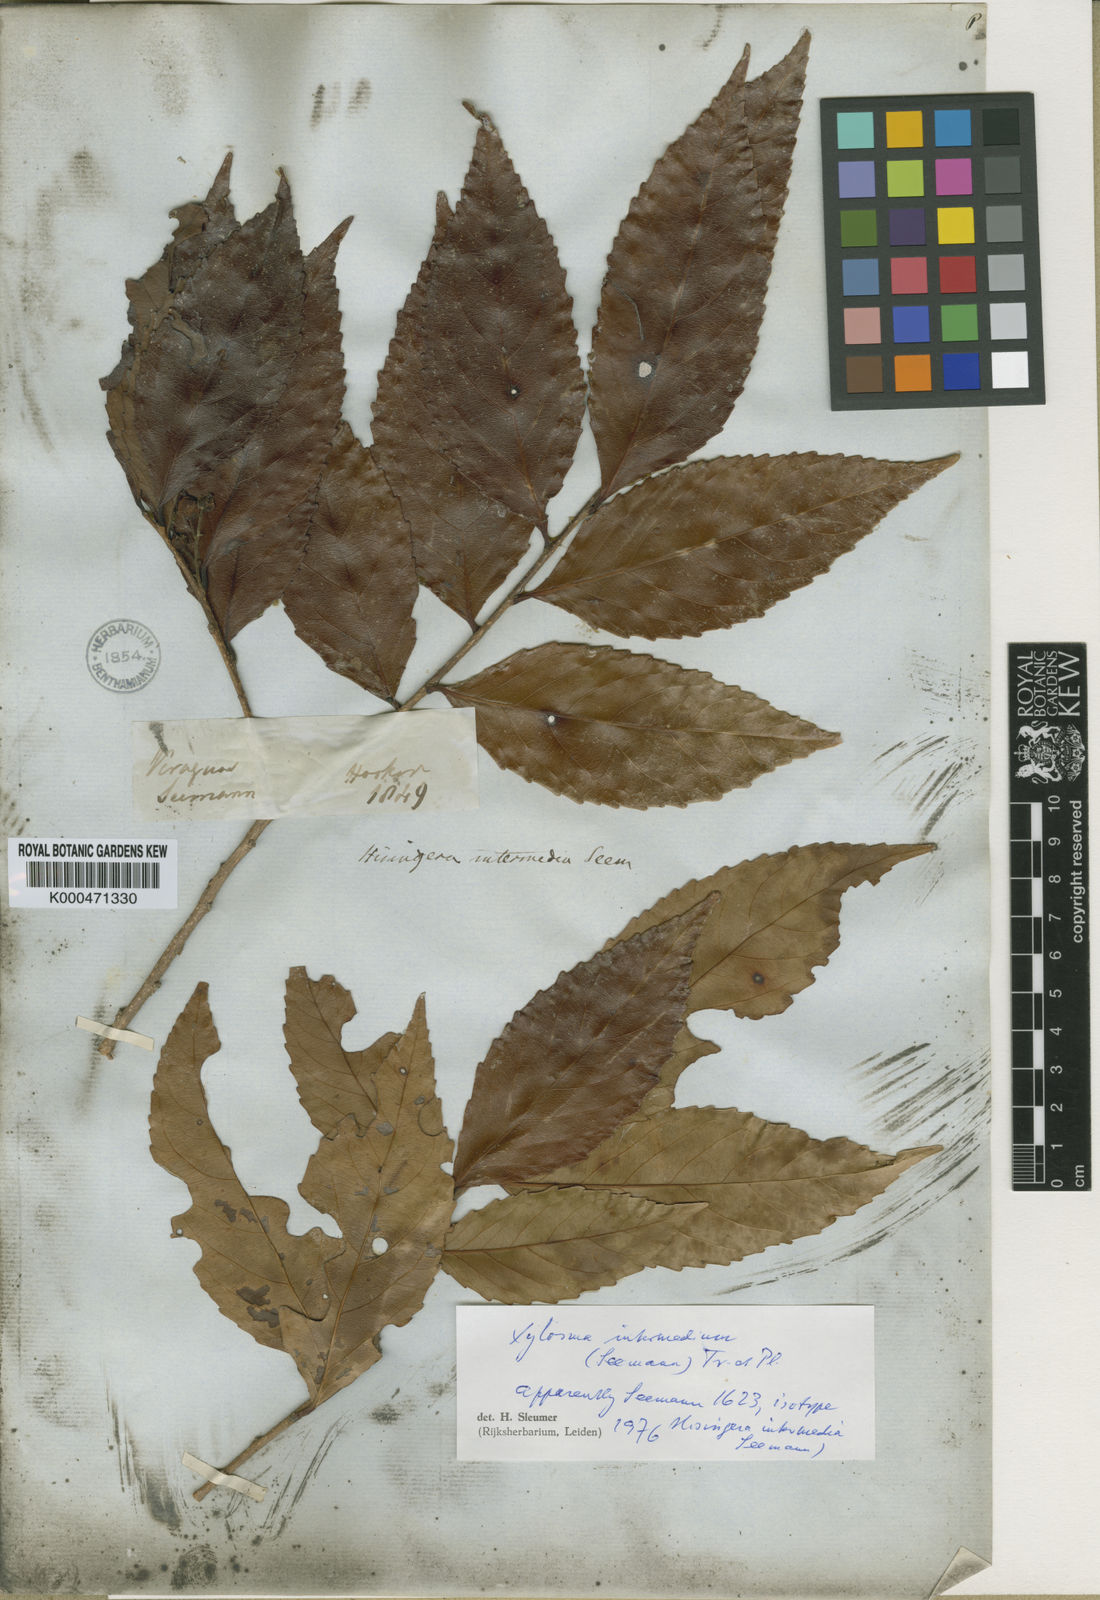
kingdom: Plantae
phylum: Tracheophyta
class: Magnoliopsida
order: Malpighiales
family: Salicaceae
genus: Xylosma
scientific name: Xylosma intermedia
